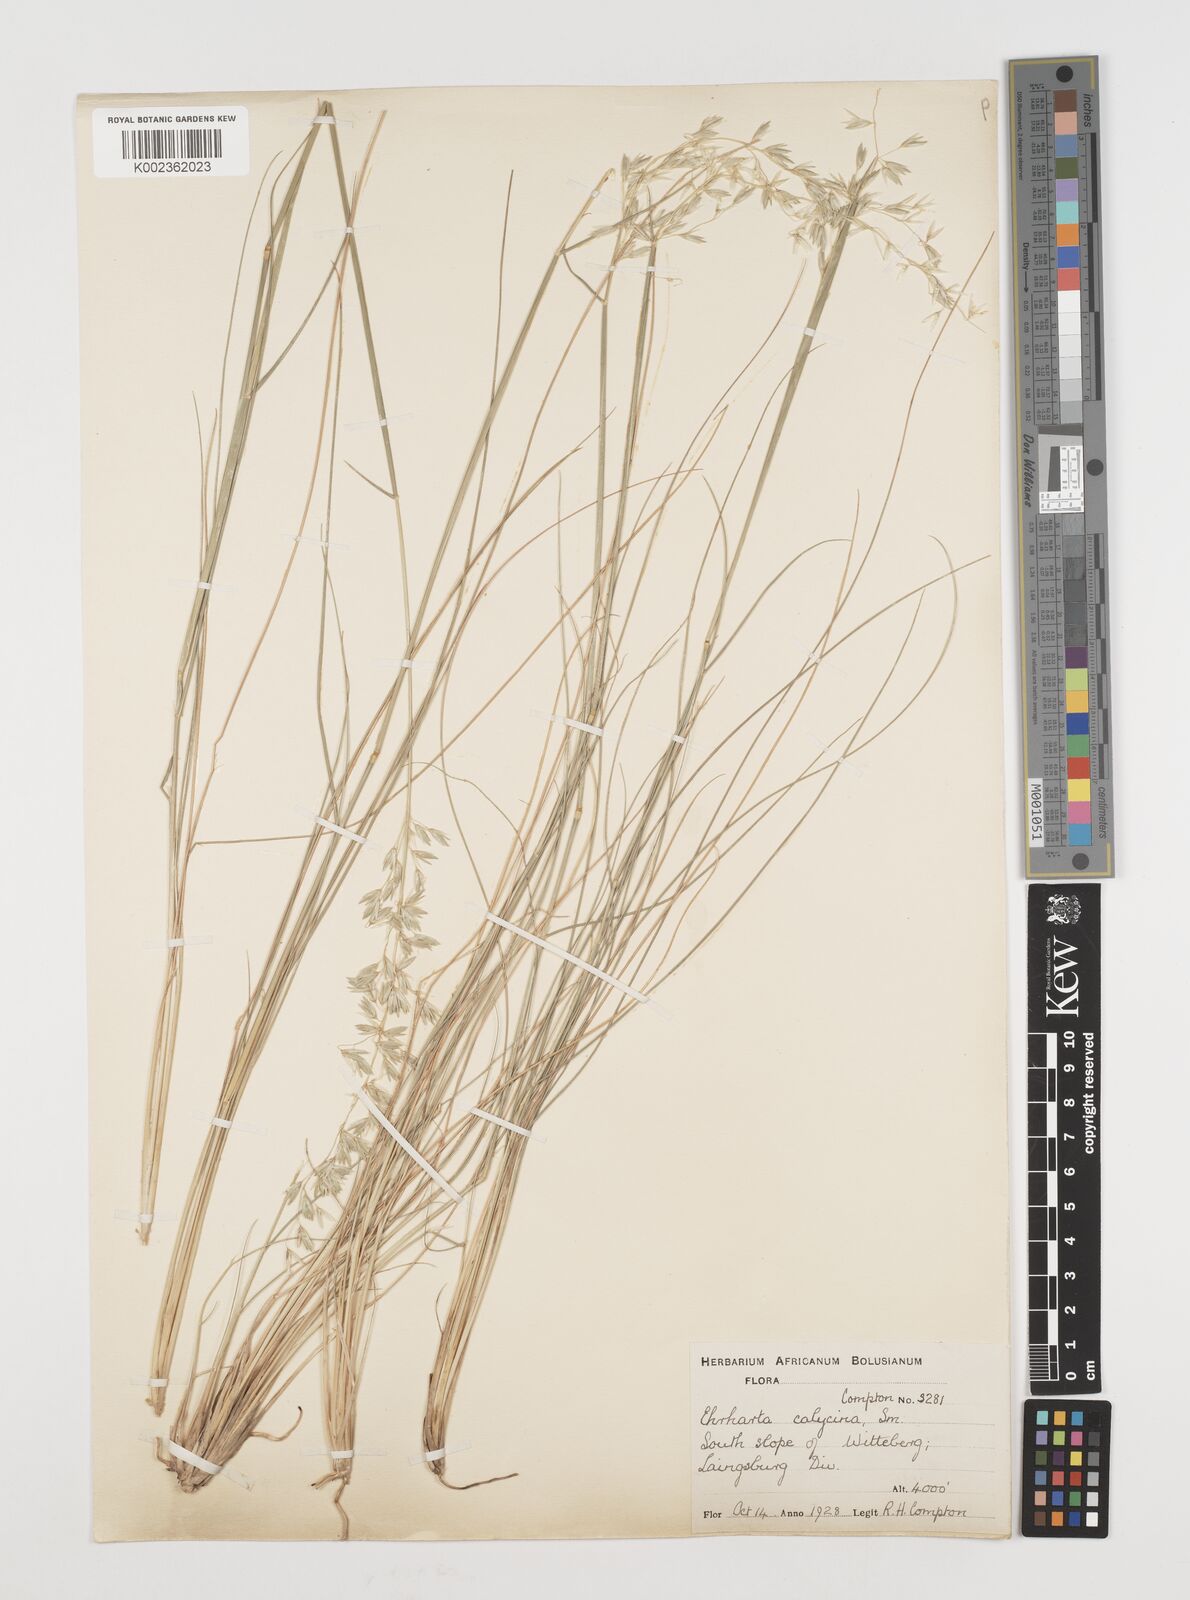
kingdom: Plantae
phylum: Tracheophyta
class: Liliopsida
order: Poales
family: Poaceae
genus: Ehrharta
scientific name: Ehrharta calycina
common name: Perennial veldtgrass
